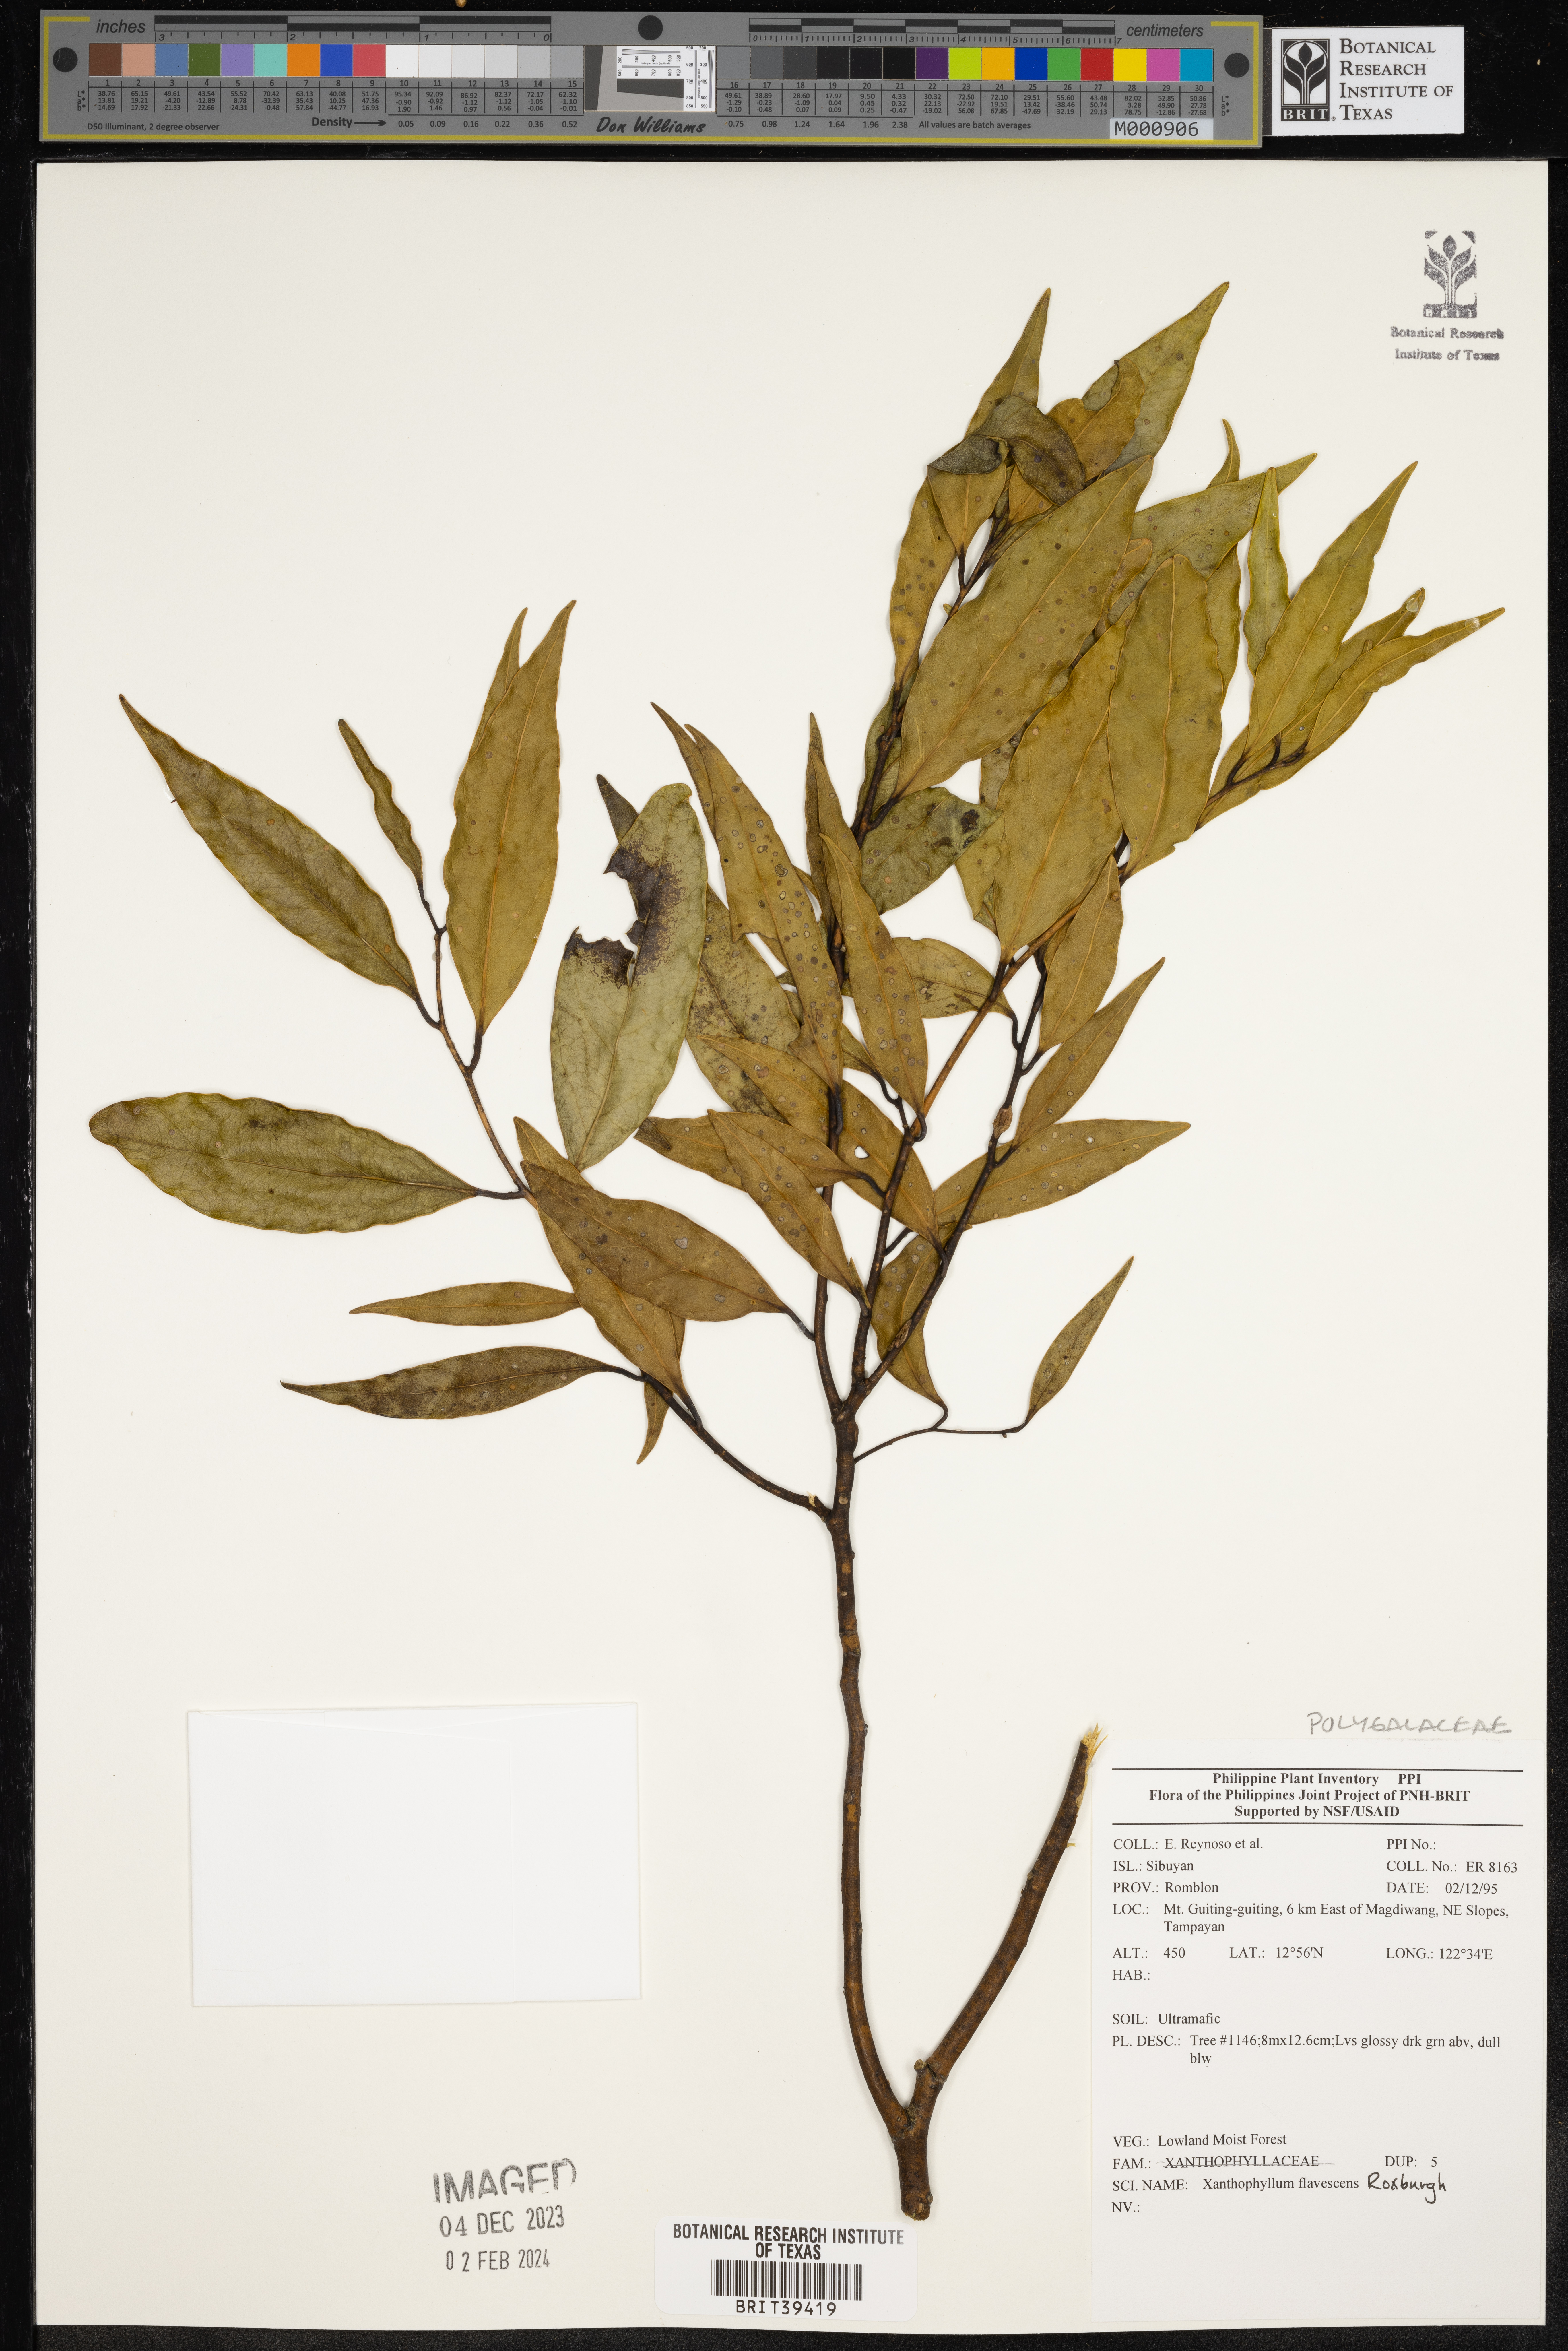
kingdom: Plantae
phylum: Tracheophyta
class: Magnoliopsida
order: Fabales
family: Polygalaceae
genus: Xanthophyllum
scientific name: Xanthophyllum flavescens
